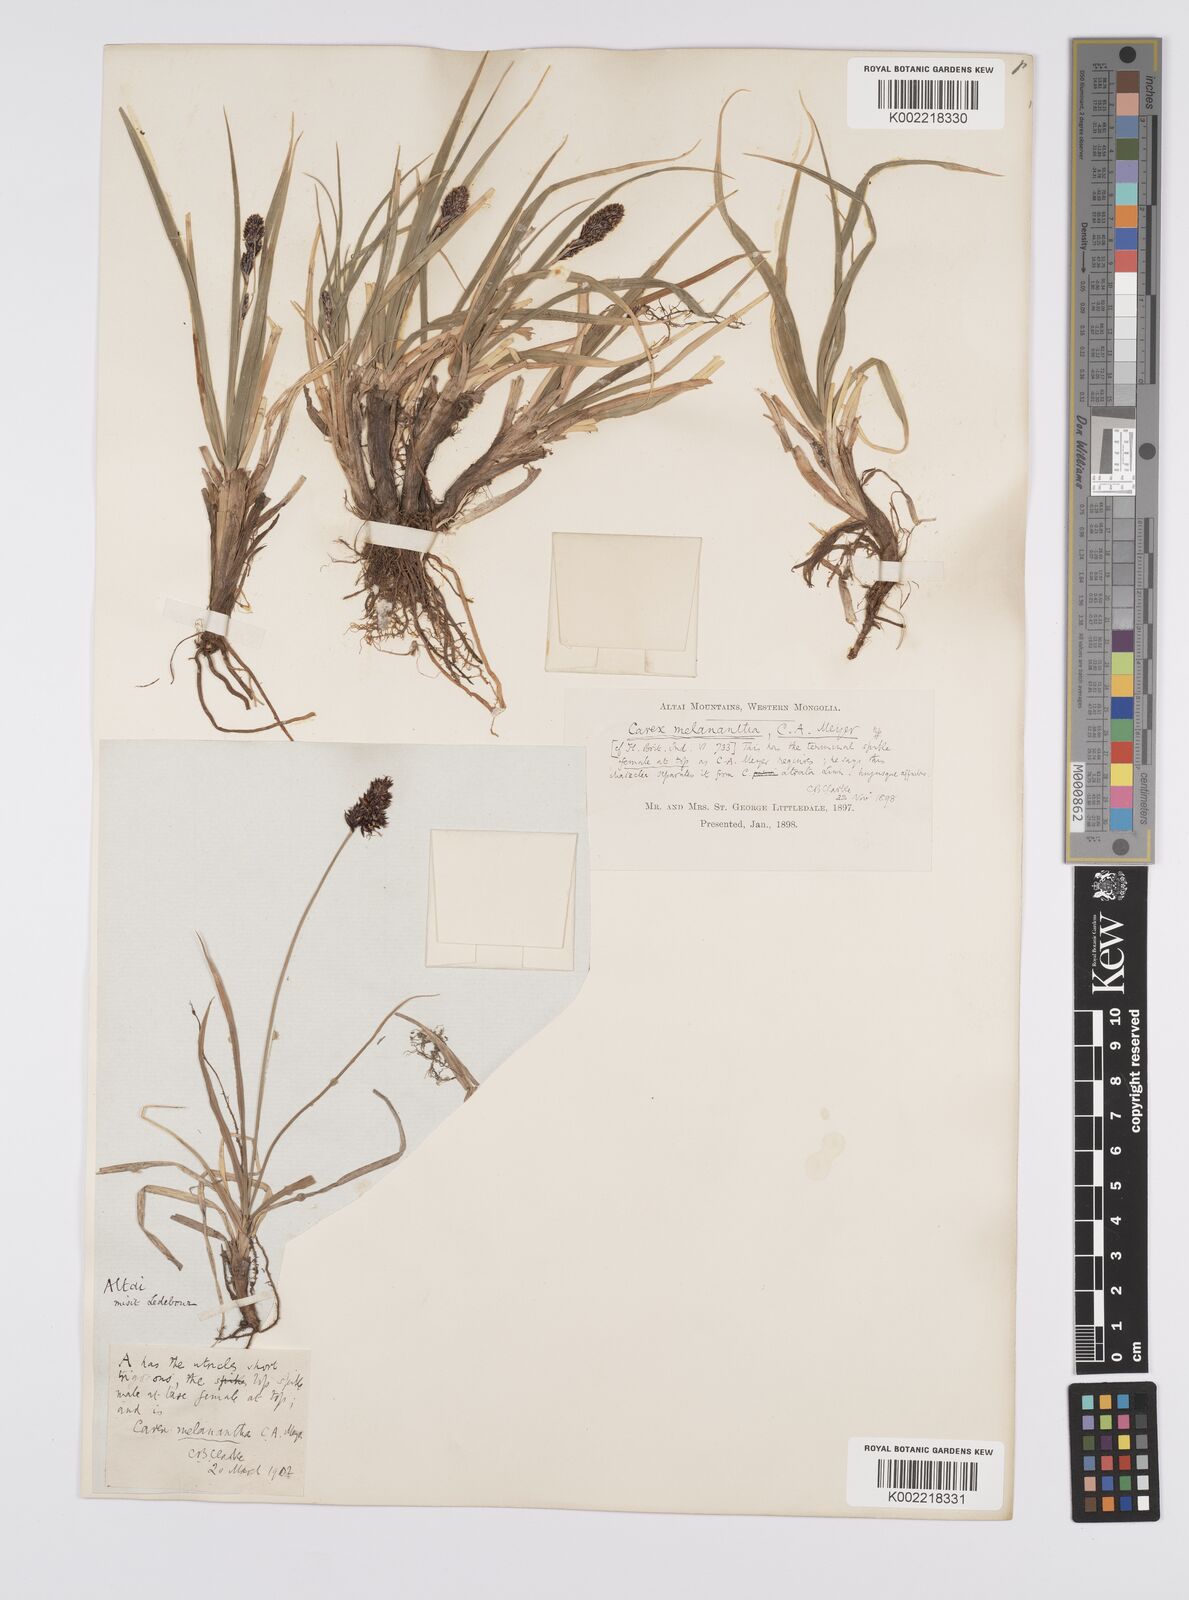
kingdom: Plantae
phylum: Tracheophyta
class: Liliopsida
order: Poales
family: Cyperaceae
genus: Carex
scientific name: Carex melanantha
